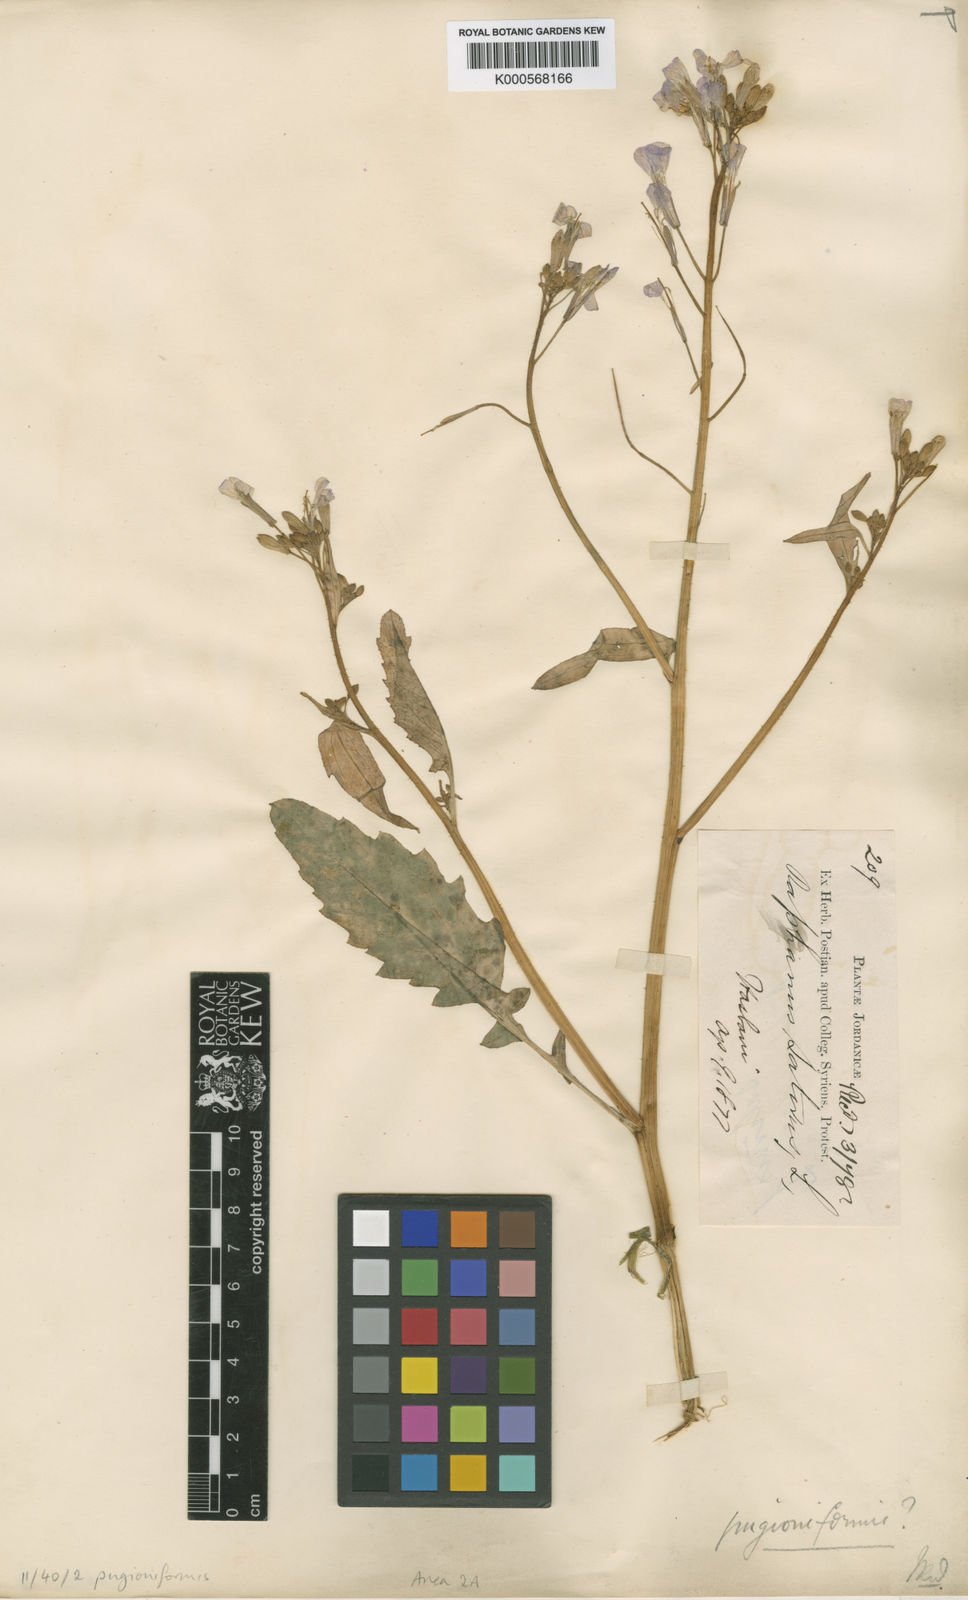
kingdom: Plantae
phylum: Tracheophyta
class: Magnoliopsida
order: Brassicales
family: Brassicaceae
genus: Raphanus
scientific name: Raphanus raphanistrum
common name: Wild radish
